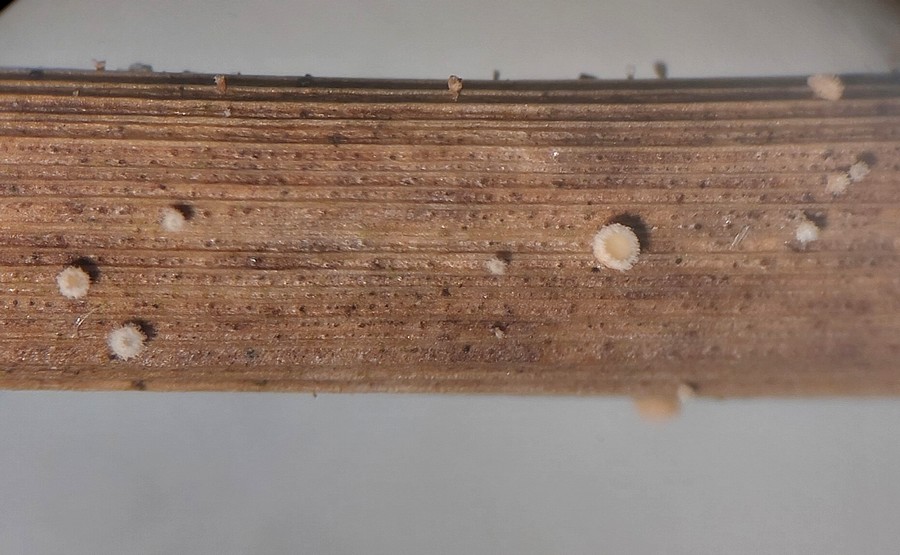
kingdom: Fungi
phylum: Ascomycota
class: Leotiomycetes
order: Helotiales
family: Lachnaceae
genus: Lachnum
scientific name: Lachnum apalum
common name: siv-frynseskive
